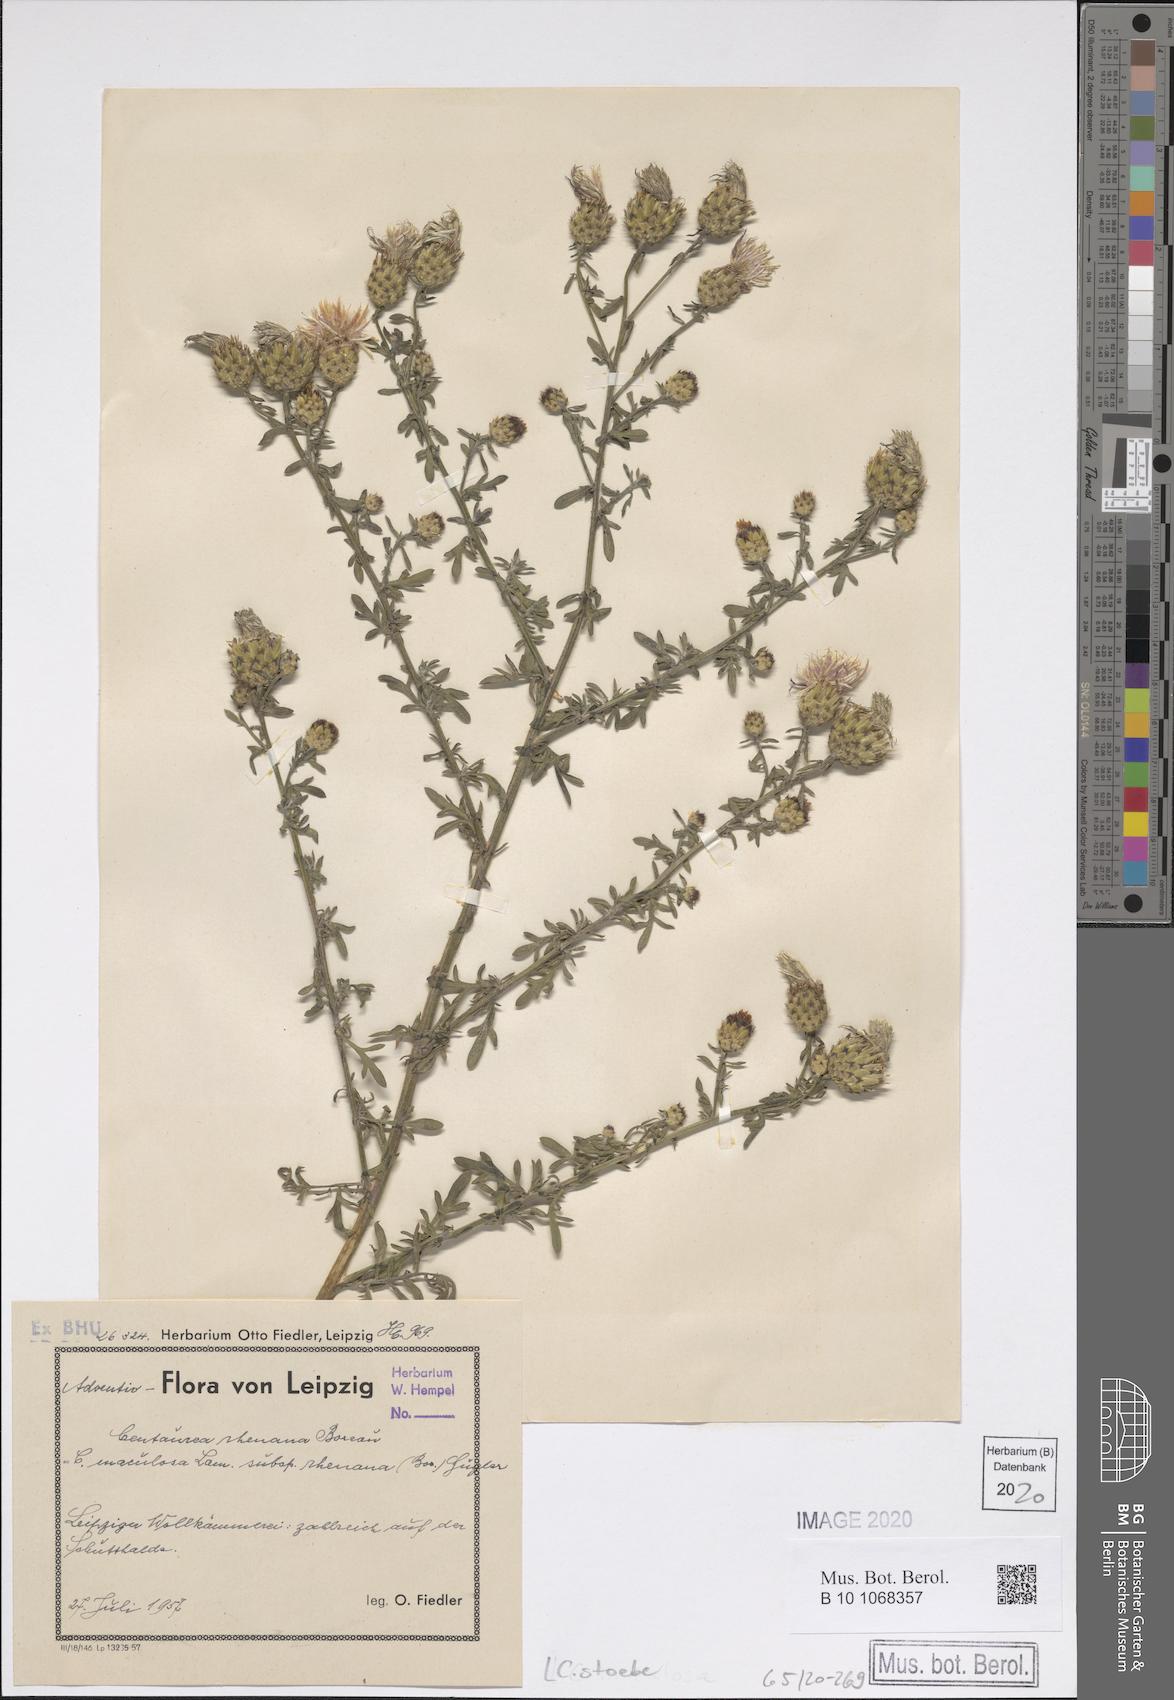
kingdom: Plantae
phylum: Tracheophyta
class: Magnoliopsida
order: Asterales
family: Asteraceae
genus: Centaurea
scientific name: Centaurea australis
